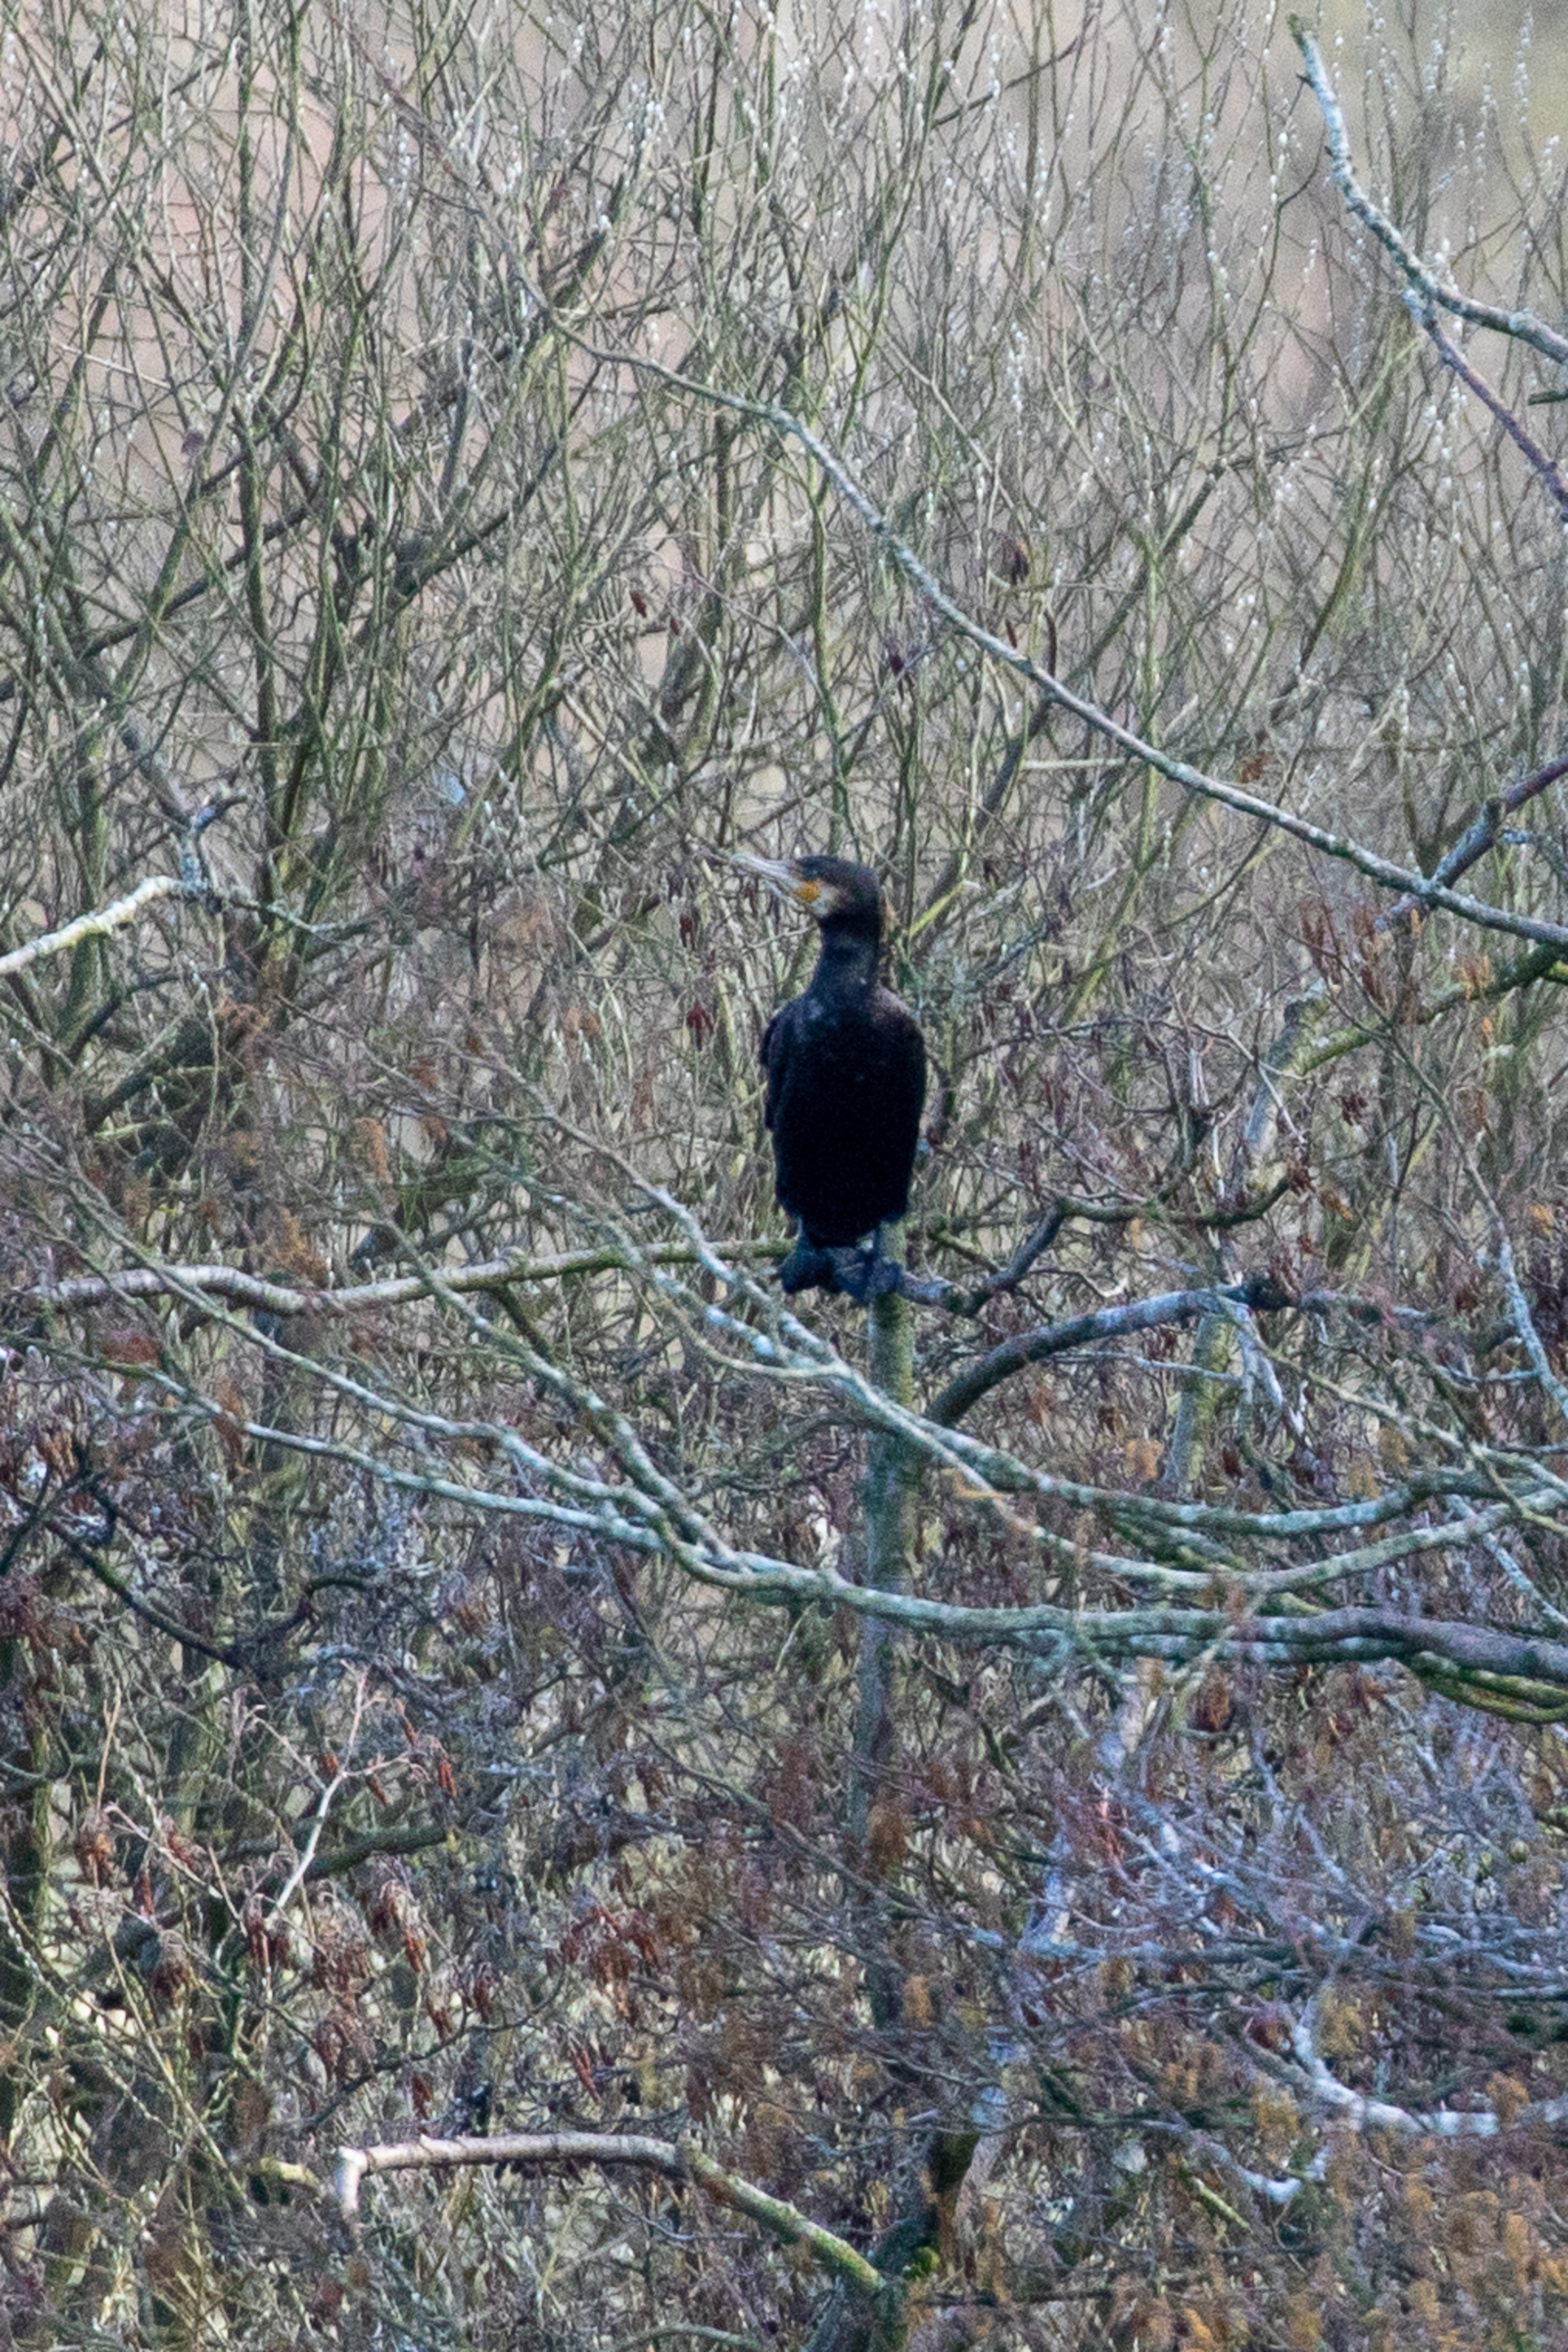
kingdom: Animalia
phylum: Chordata
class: Aves
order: Suliformes
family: Phalacrocoracidae
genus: Phalacrocorax
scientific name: Phalacrocorax carbo
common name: Skarv
